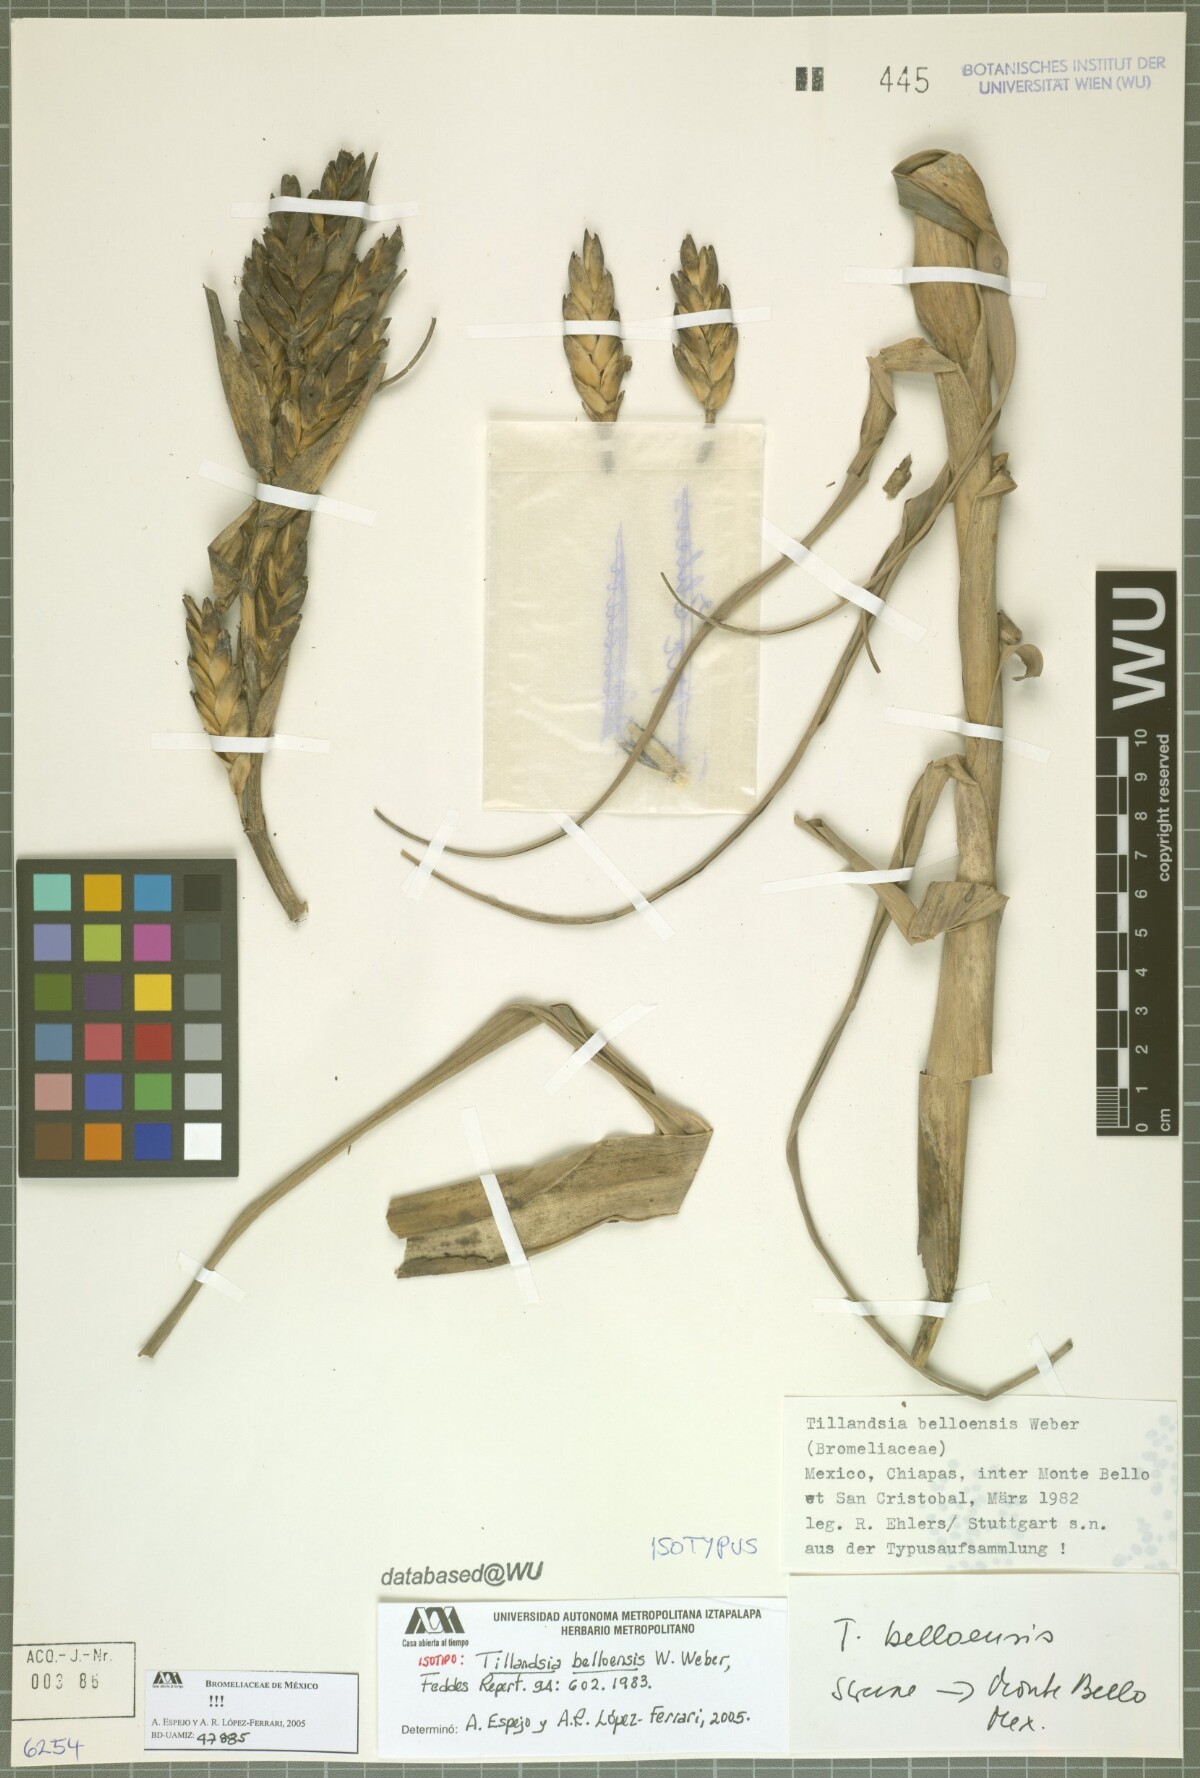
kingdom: Plantae
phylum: Tracheophyta
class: Liliopsida
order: Poales
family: Bromeliaceae
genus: Tillandsia
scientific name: Tillandsia belloensis
